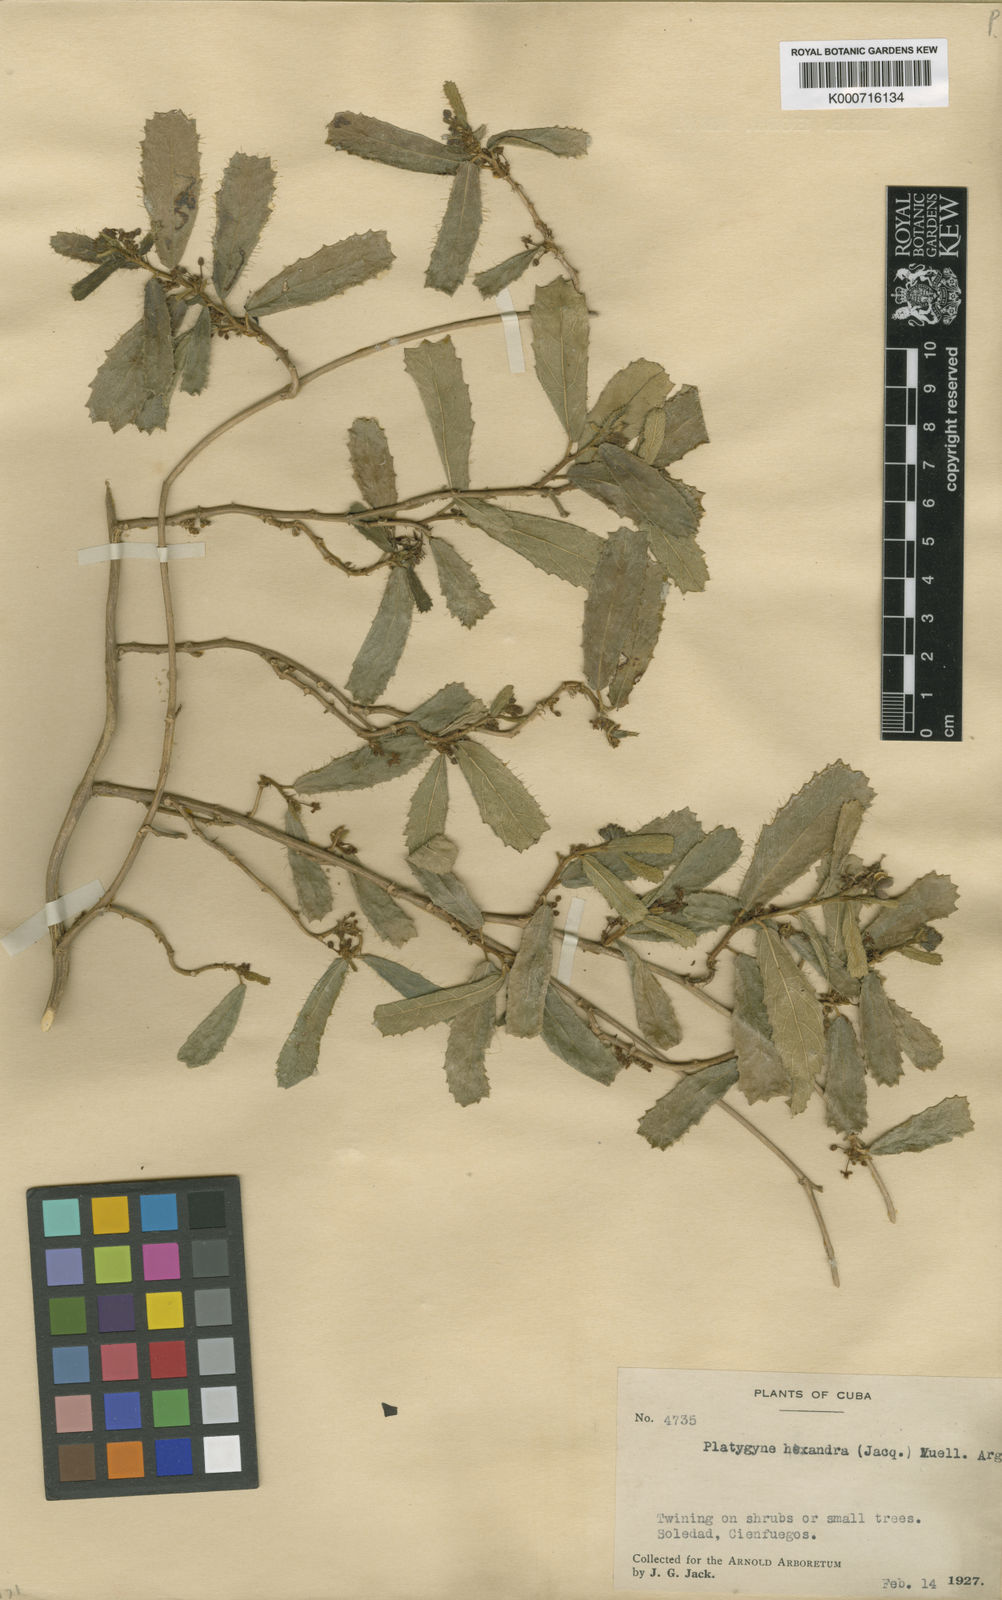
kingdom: Plantae
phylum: Tracheophyta
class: Magnoliopsida
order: Malpighiales
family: Euphorbiaceae
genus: Platygyna
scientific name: Platygyna
